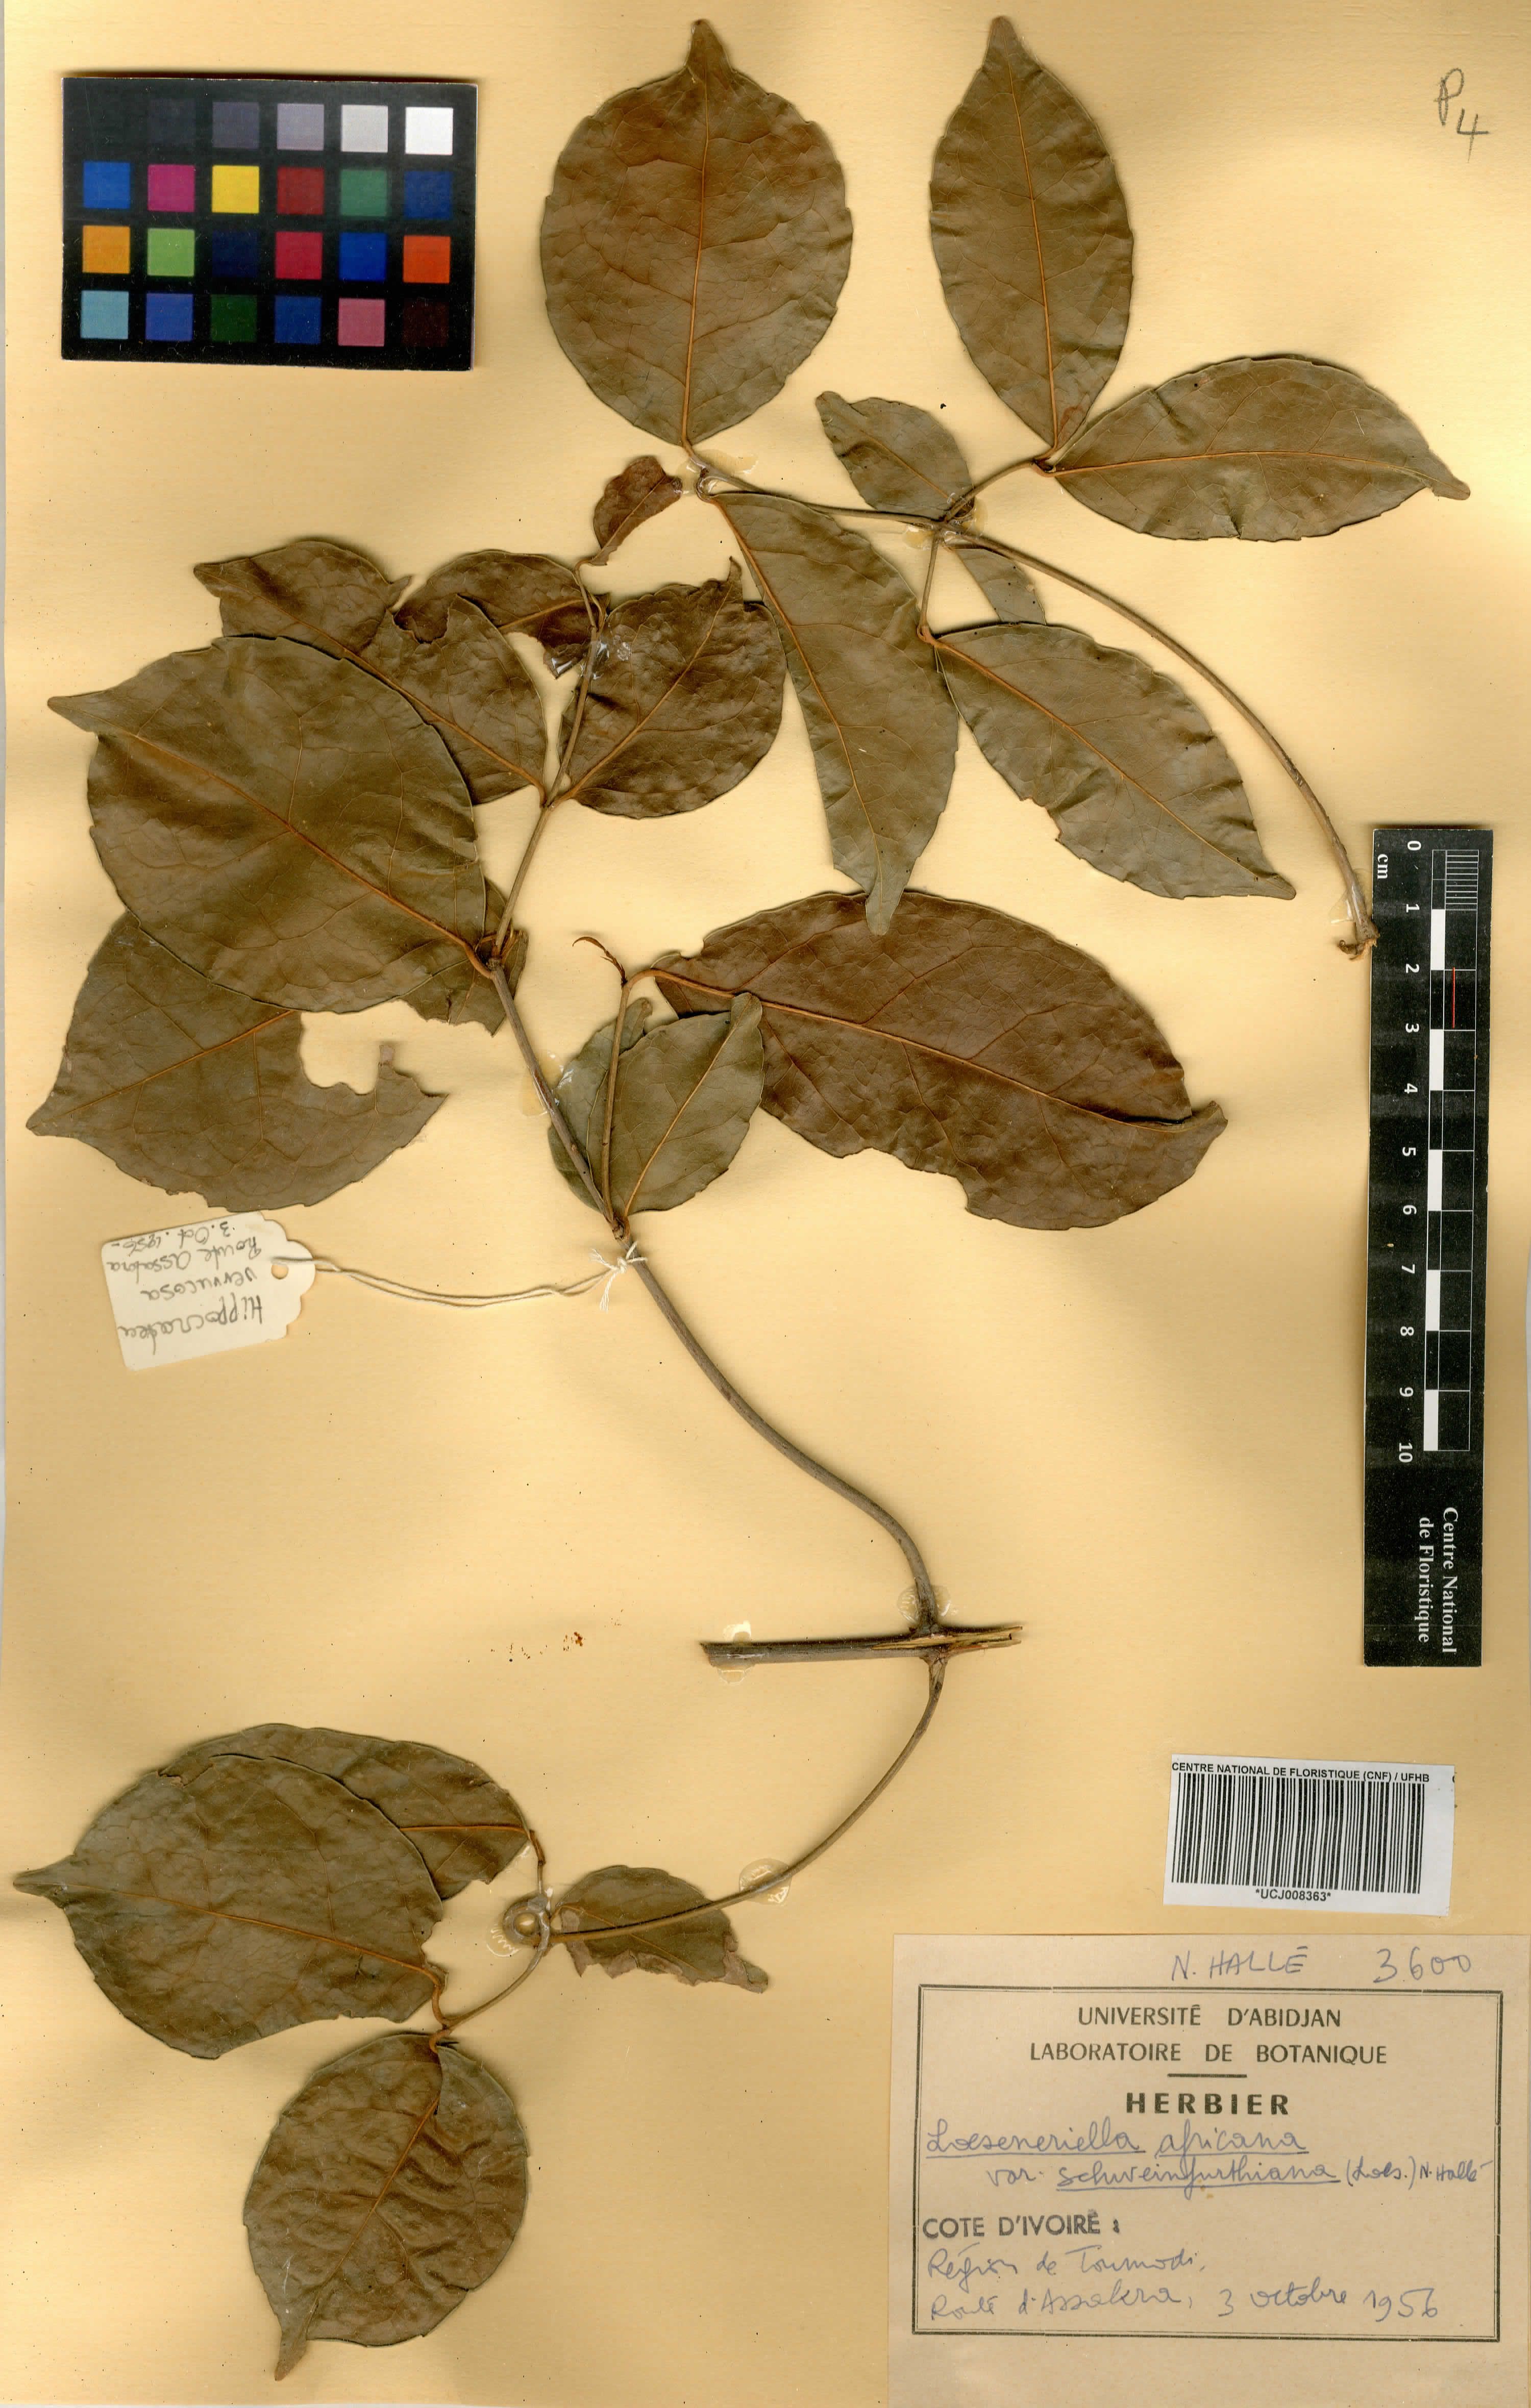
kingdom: Plantae
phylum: Tracheophyta
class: Magnoliopsida
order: Celastrales
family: Celastraceae
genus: Loeseneriella
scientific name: Loeseneriella africana
